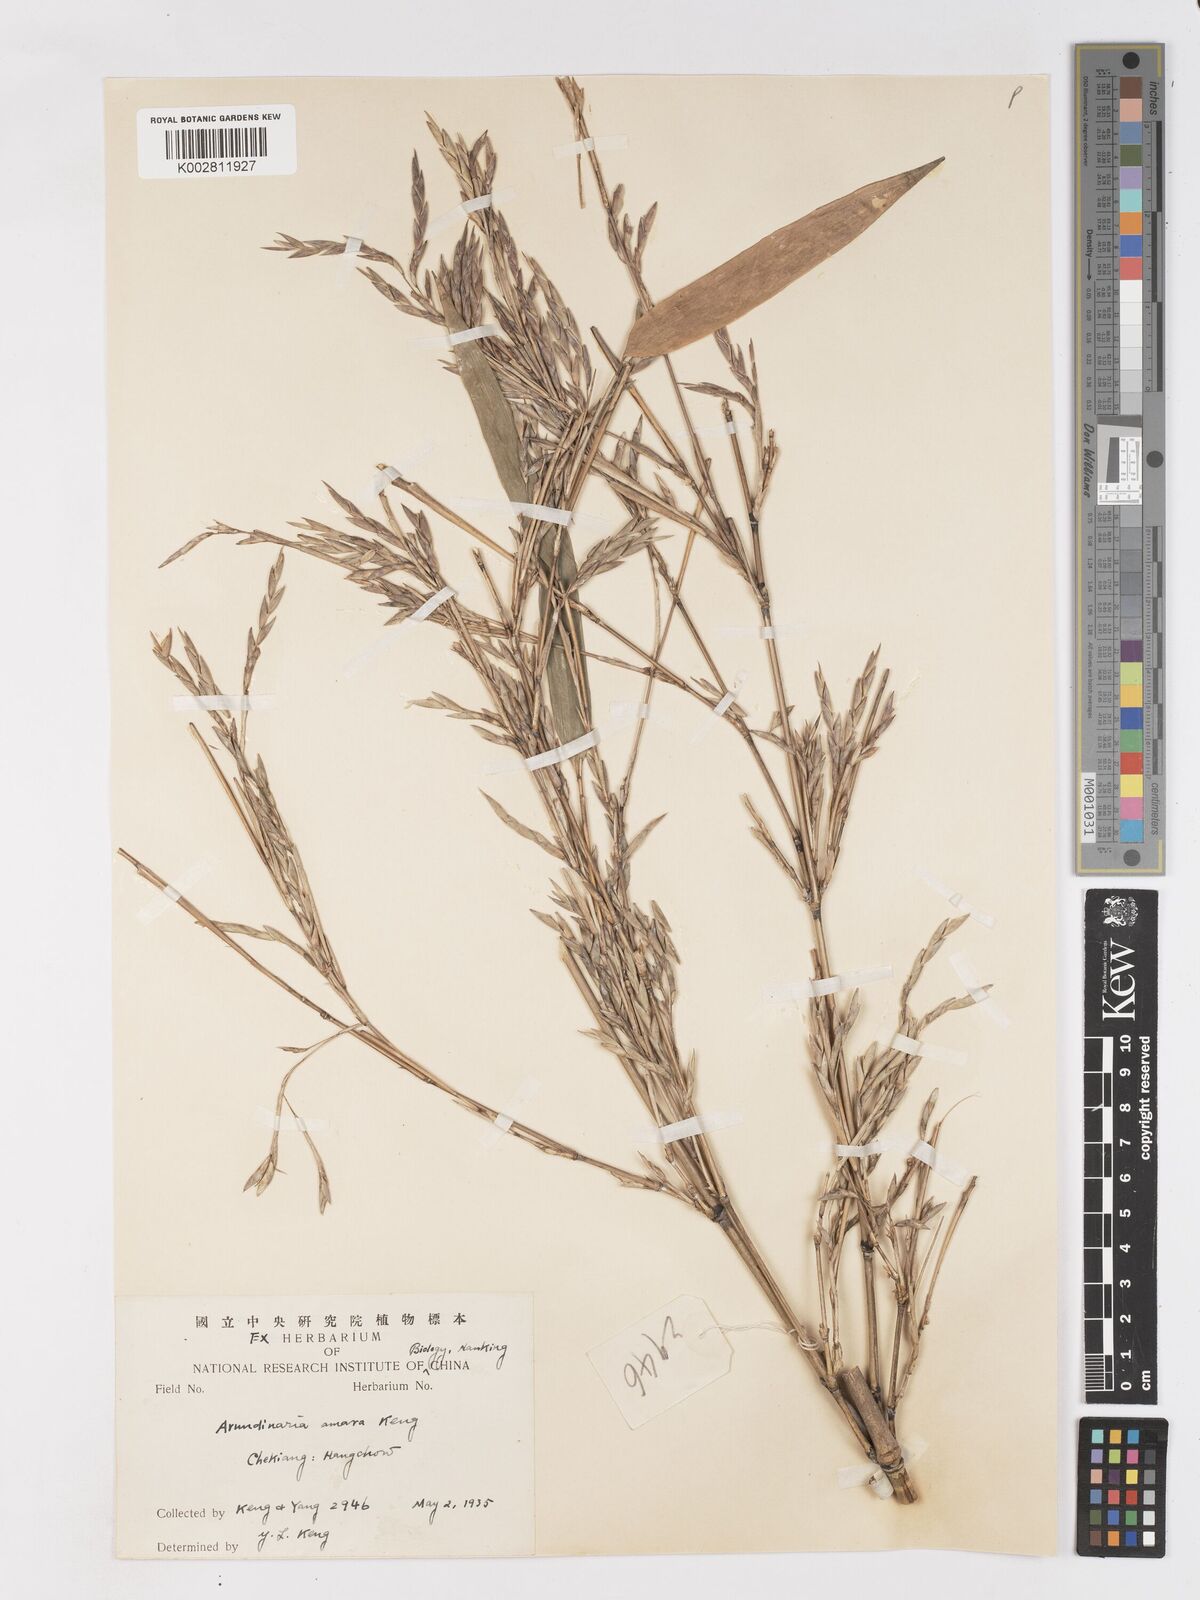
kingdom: Plantae
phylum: Tracheophyta
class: Liliopsida
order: Poales
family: Poaceae
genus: Pleioblastus
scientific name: Pleioblastus amarus
